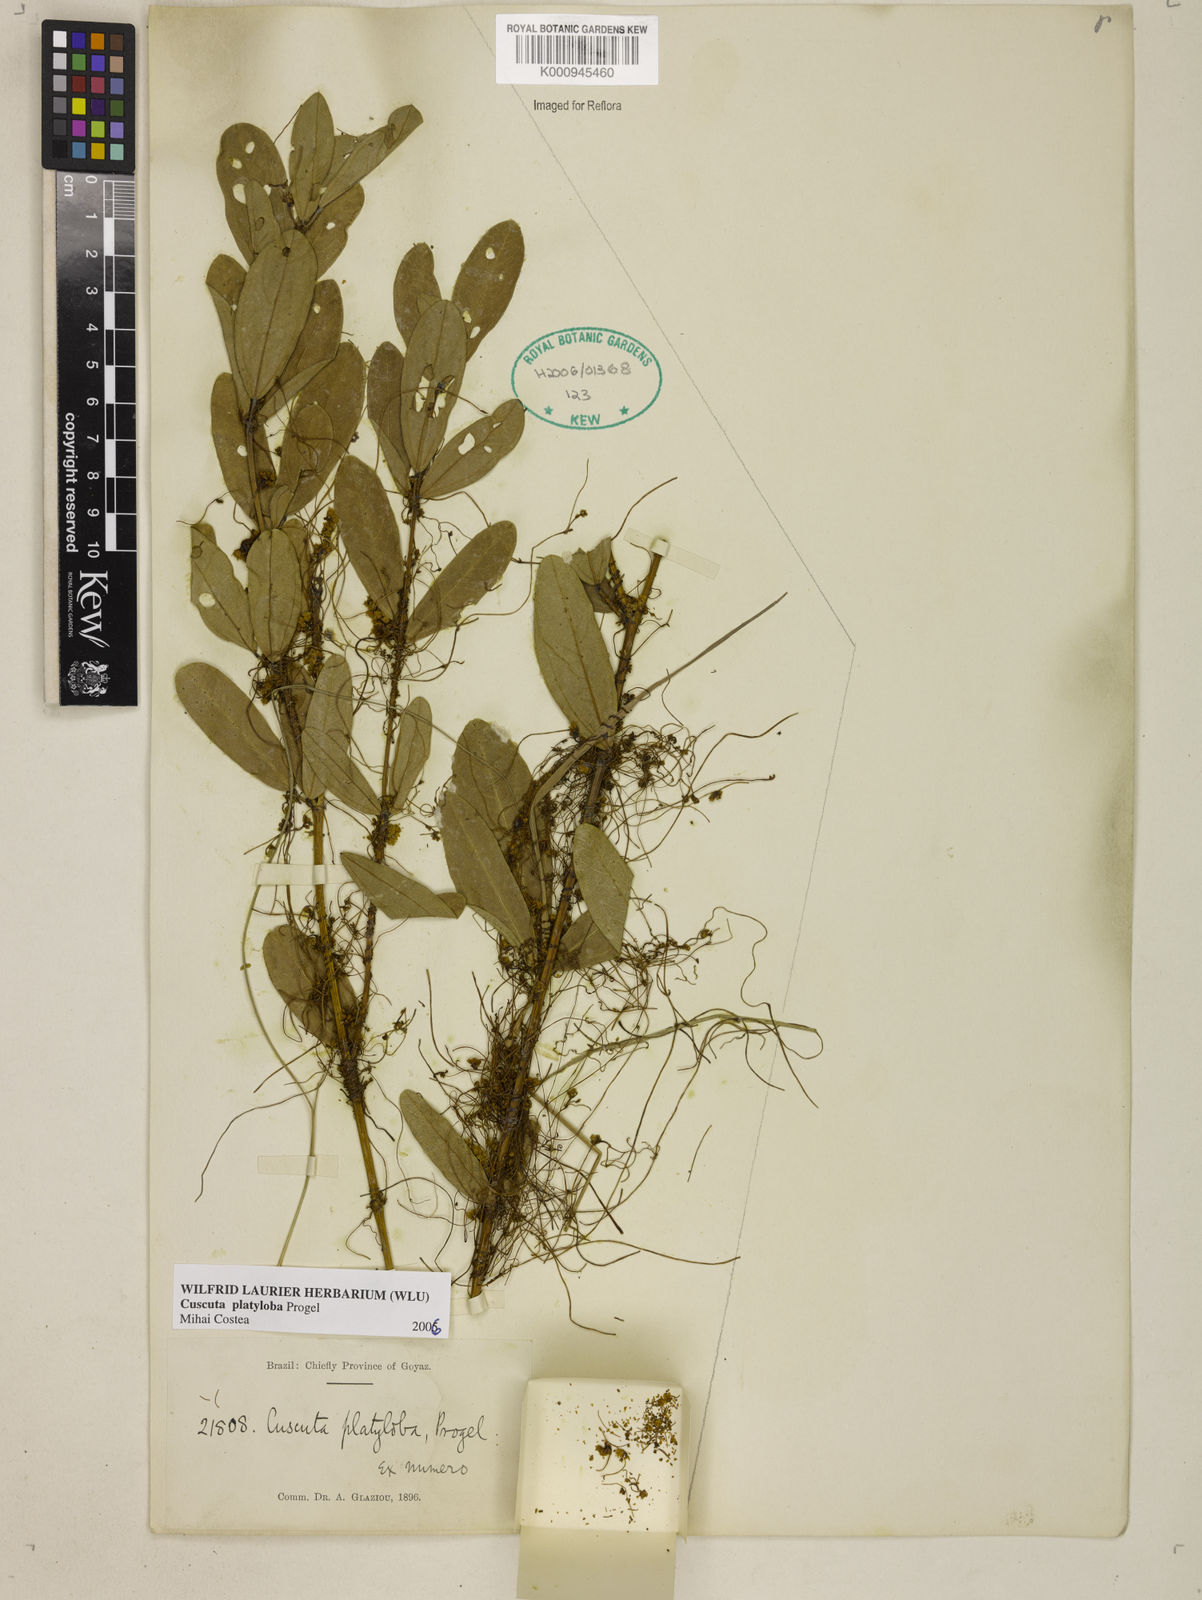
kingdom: Plantae
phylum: Tracheophyta
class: Magnoliopsida
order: Solanales
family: Convolvulaceae
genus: Cuscuta
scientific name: Cuscuta platyloba
